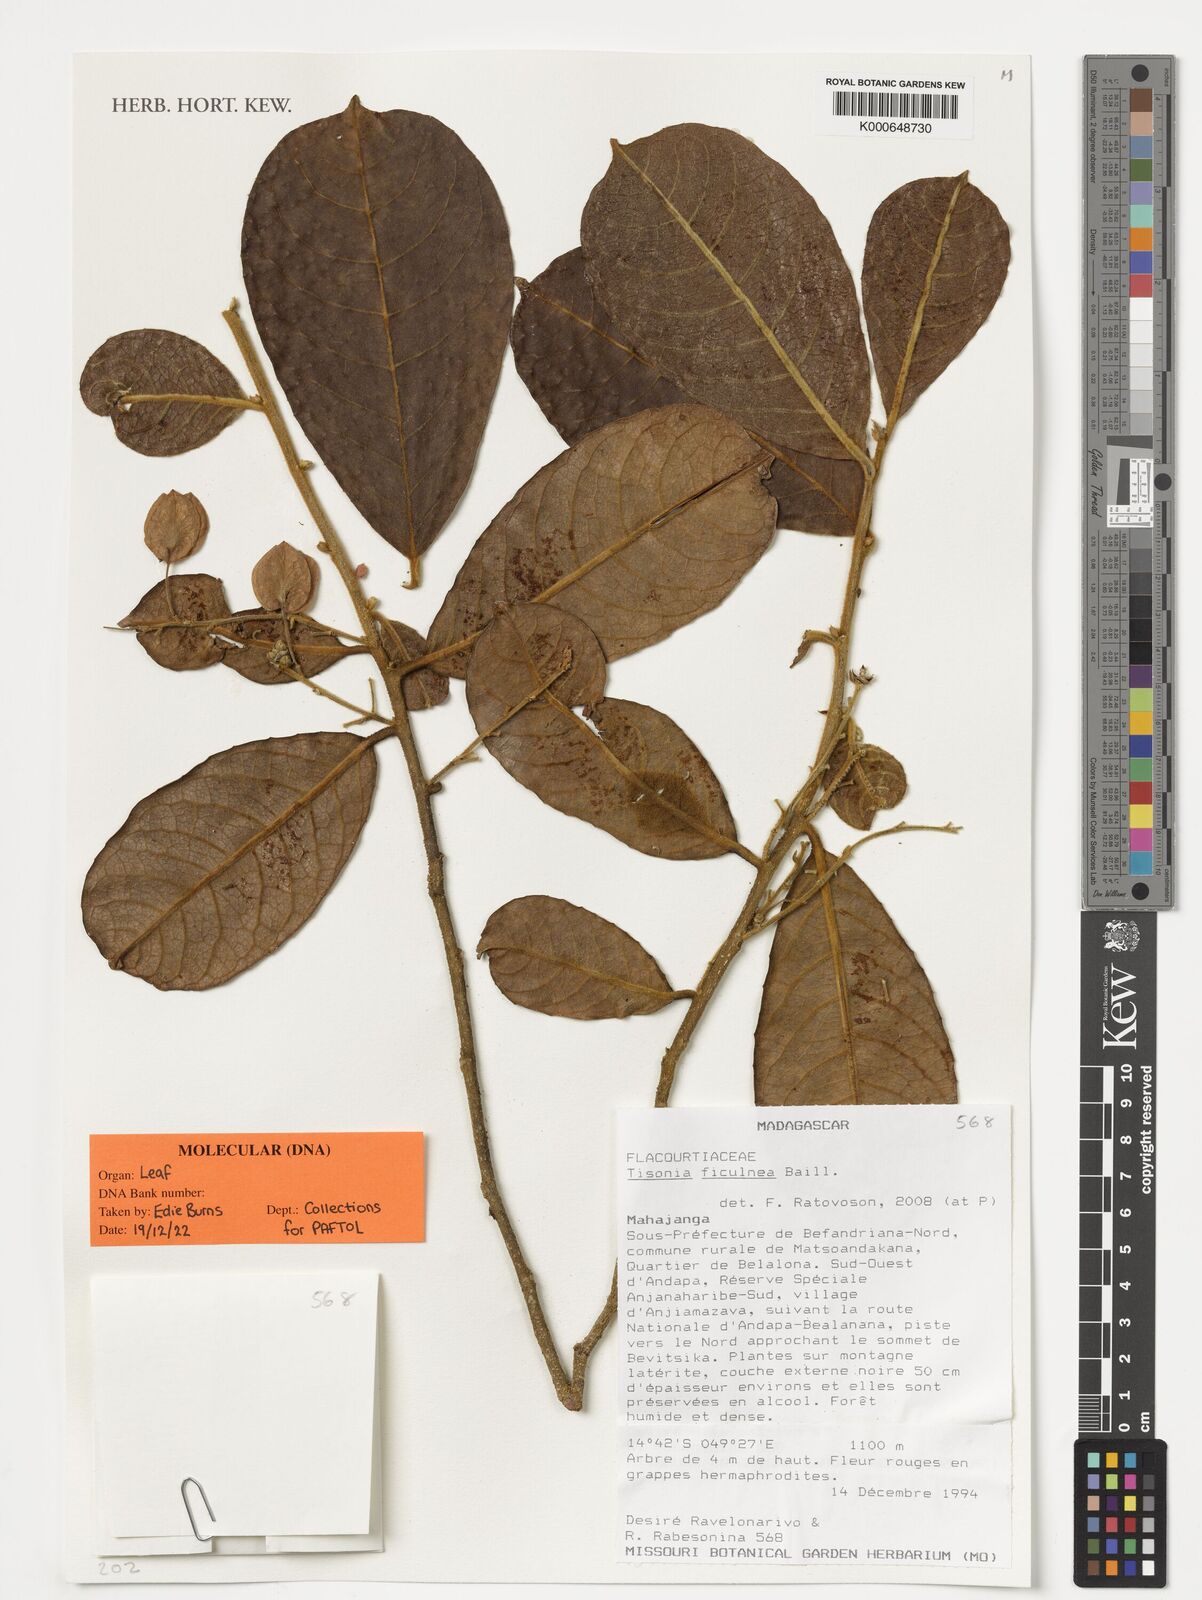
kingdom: Plantae
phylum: Tracheophyta
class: Magnoliopsida
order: Malpighiales
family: Salicaceae
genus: Tisonia
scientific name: Tisonia ficulnea
